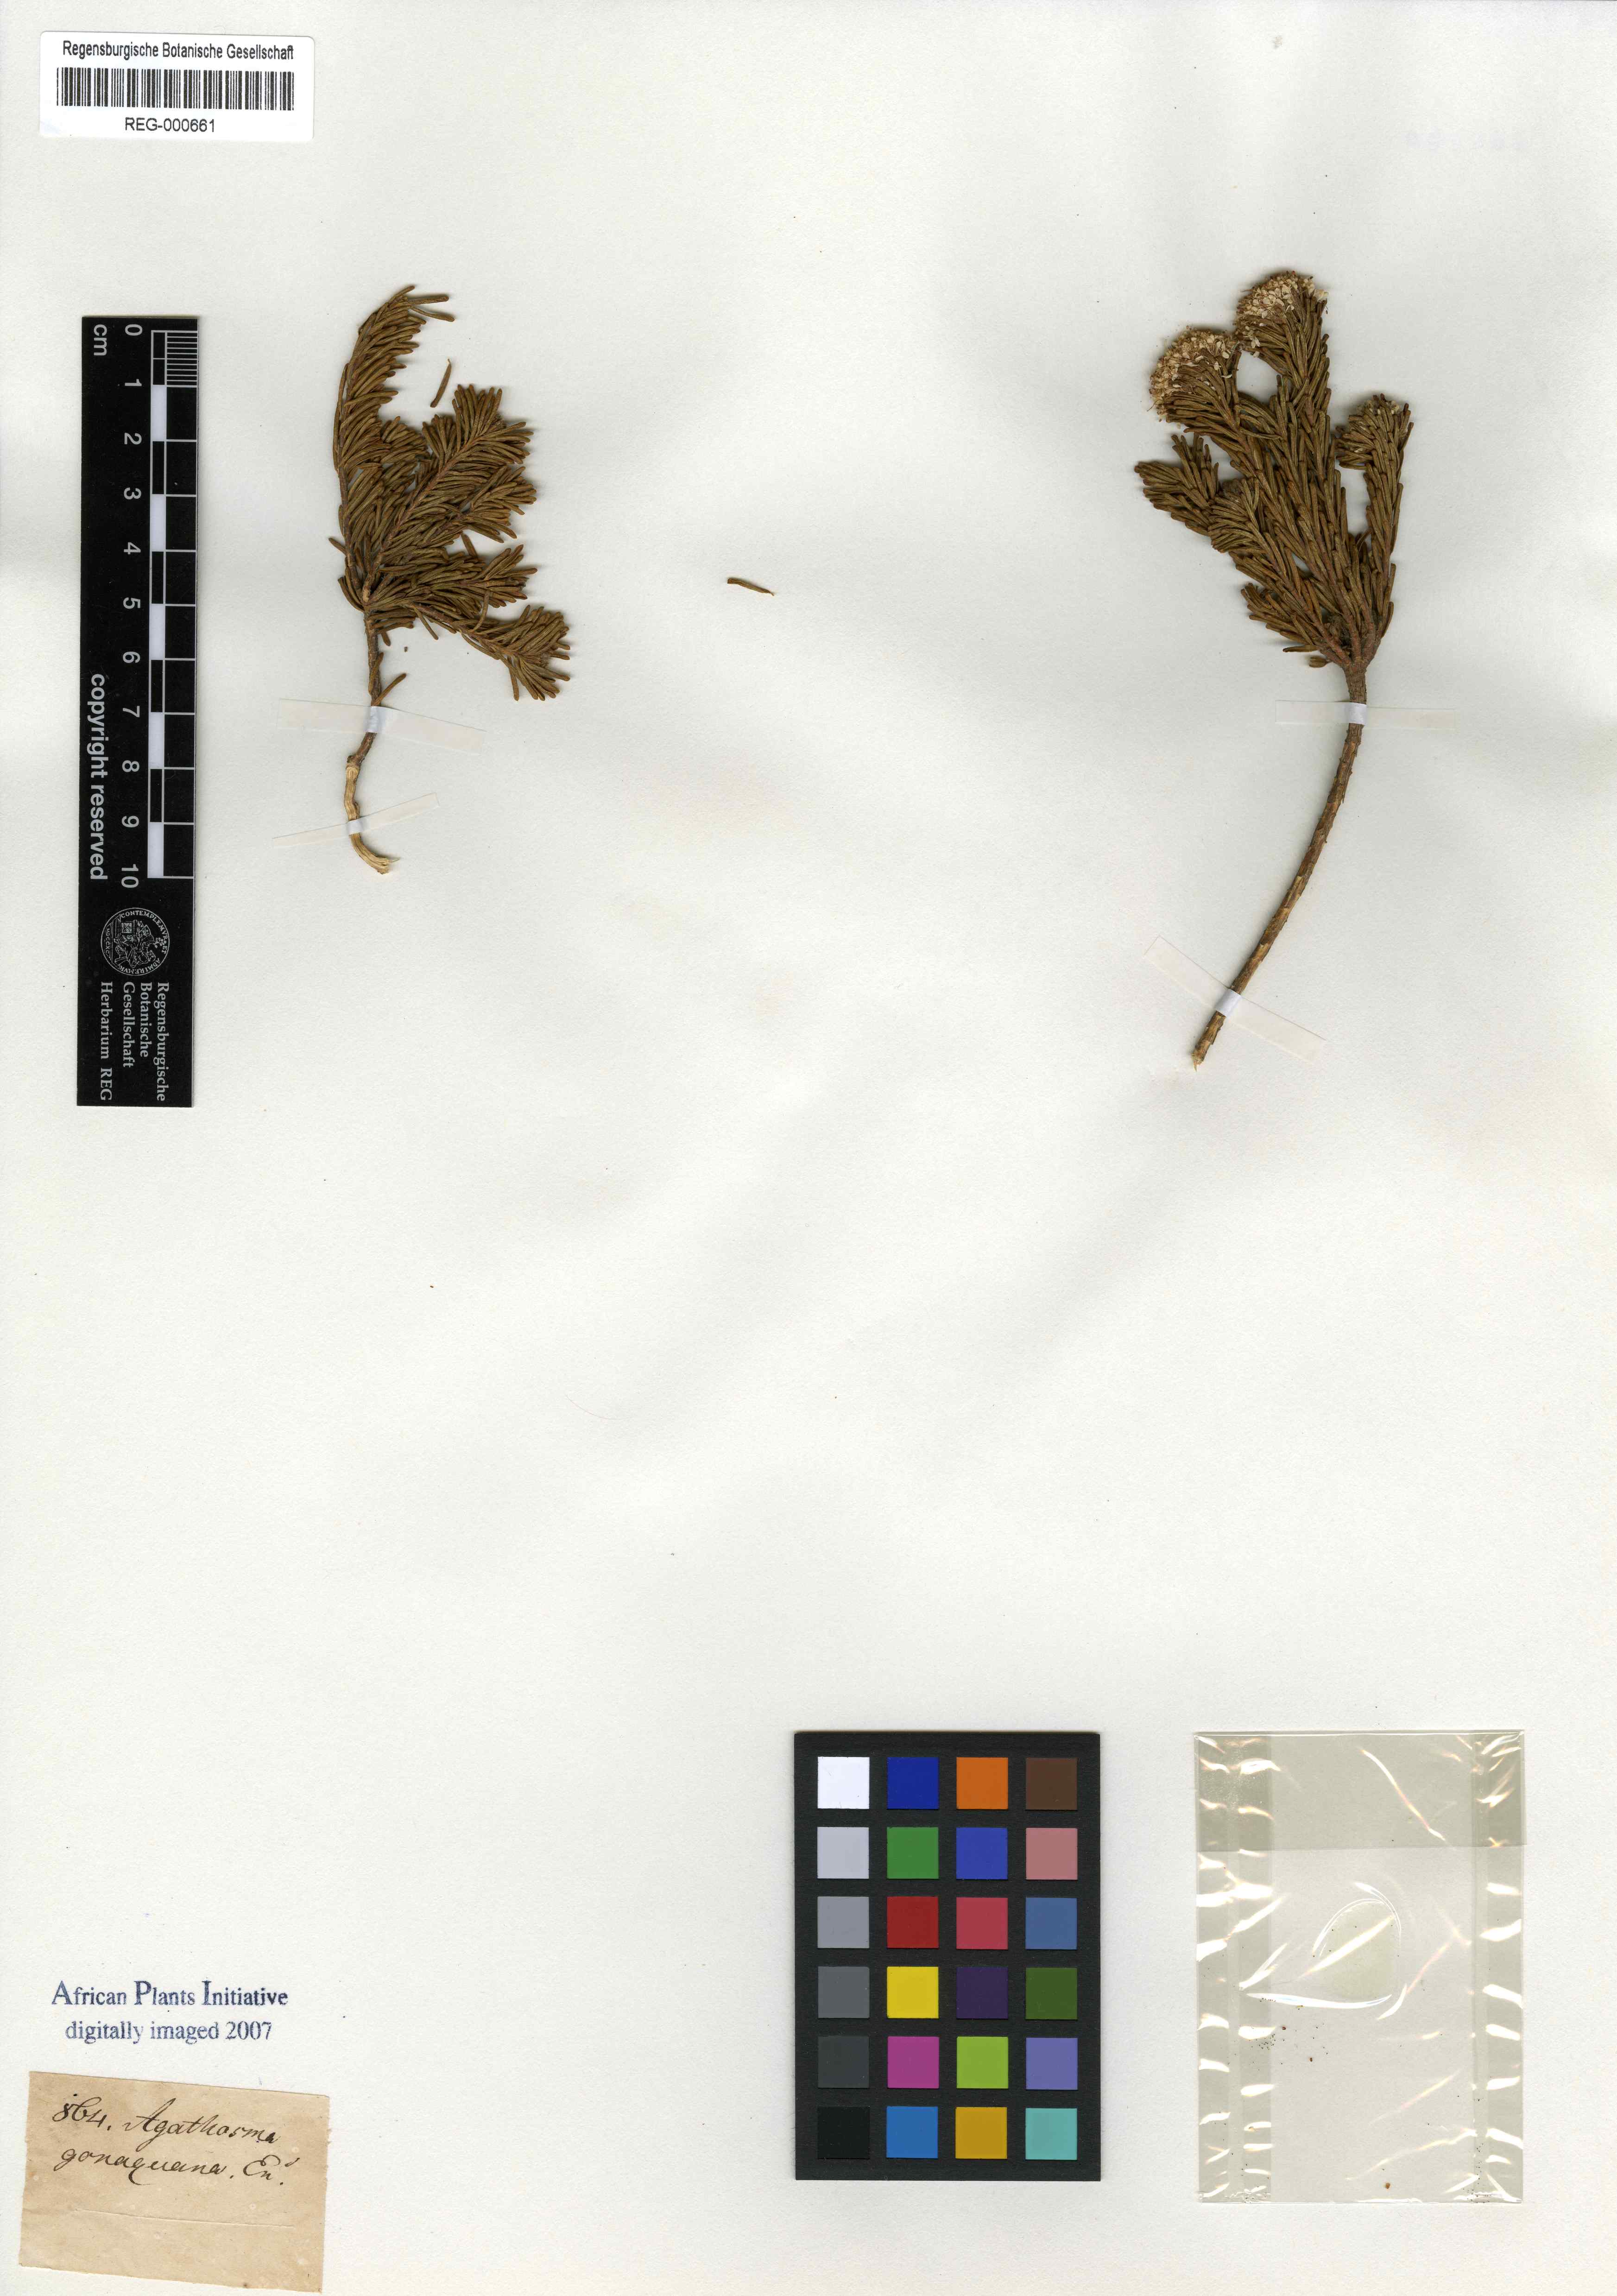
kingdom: Plantae
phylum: Tracheophyta
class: Magnoliopsida
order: Sapindales
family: Rutaceae
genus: Agathosma
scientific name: Agathosma gonaquensis
